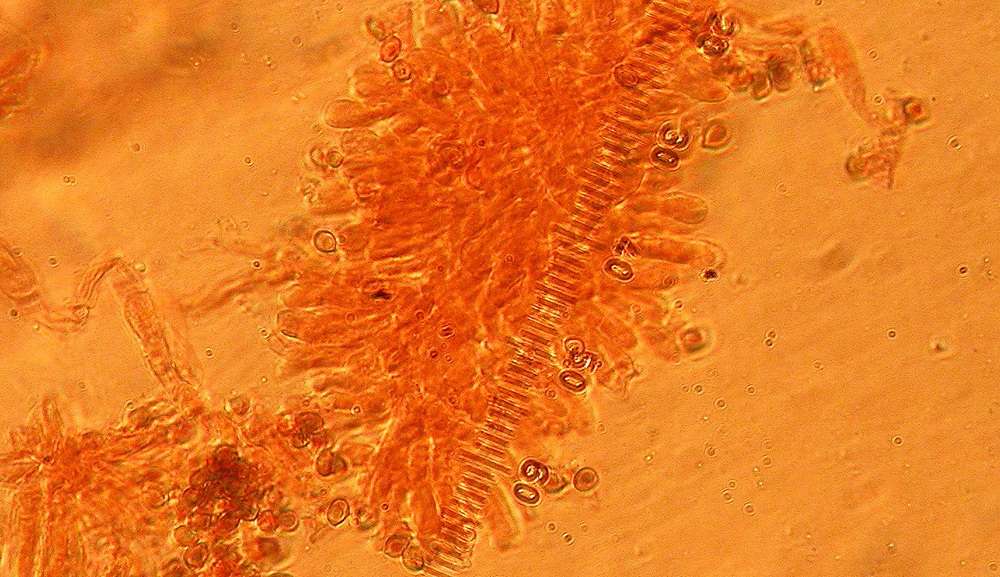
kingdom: Fungi
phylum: Basidiomycota
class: Agaricomycetes
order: Agaricales
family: Agaricaceae
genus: Agaricus
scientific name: Agaricus sylvaticus
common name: lille blod-champignon
